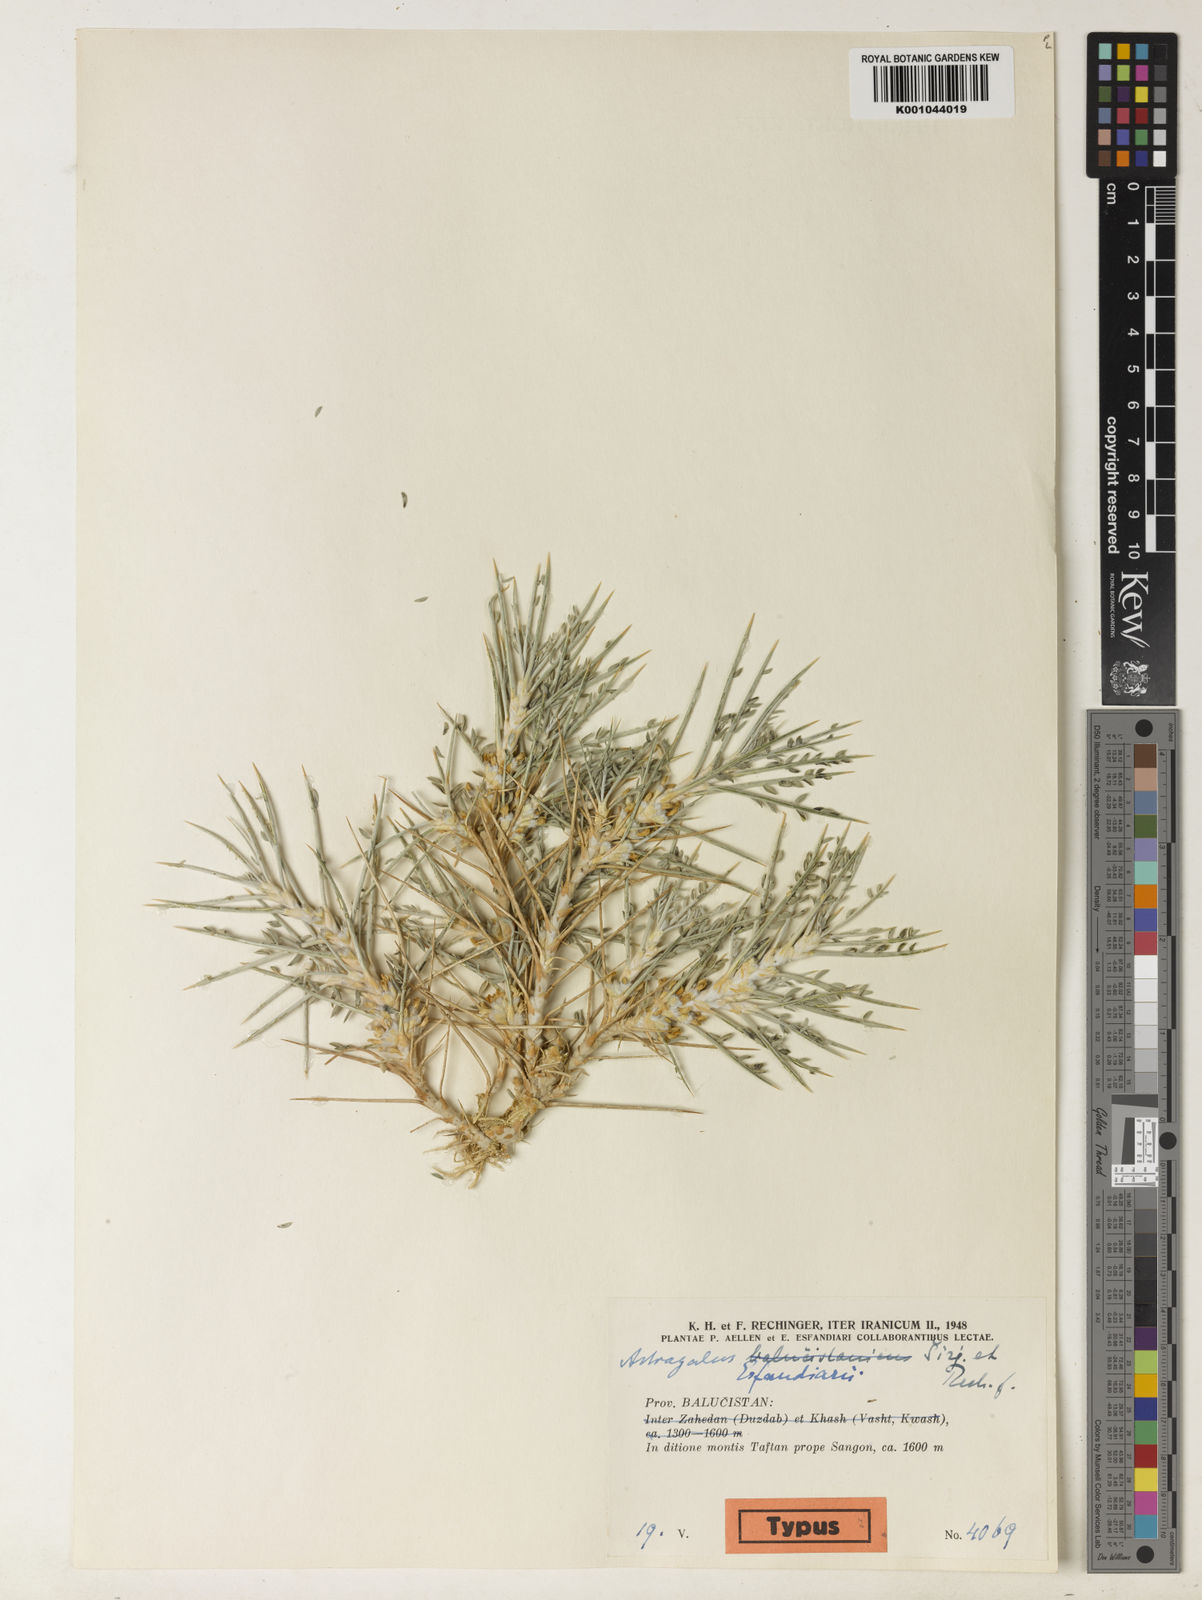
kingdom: Plantae
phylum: Tracheophyta
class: Magnoliopsida
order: Fabales
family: Fabaceae
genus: Astragalus
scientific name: Astragalus
